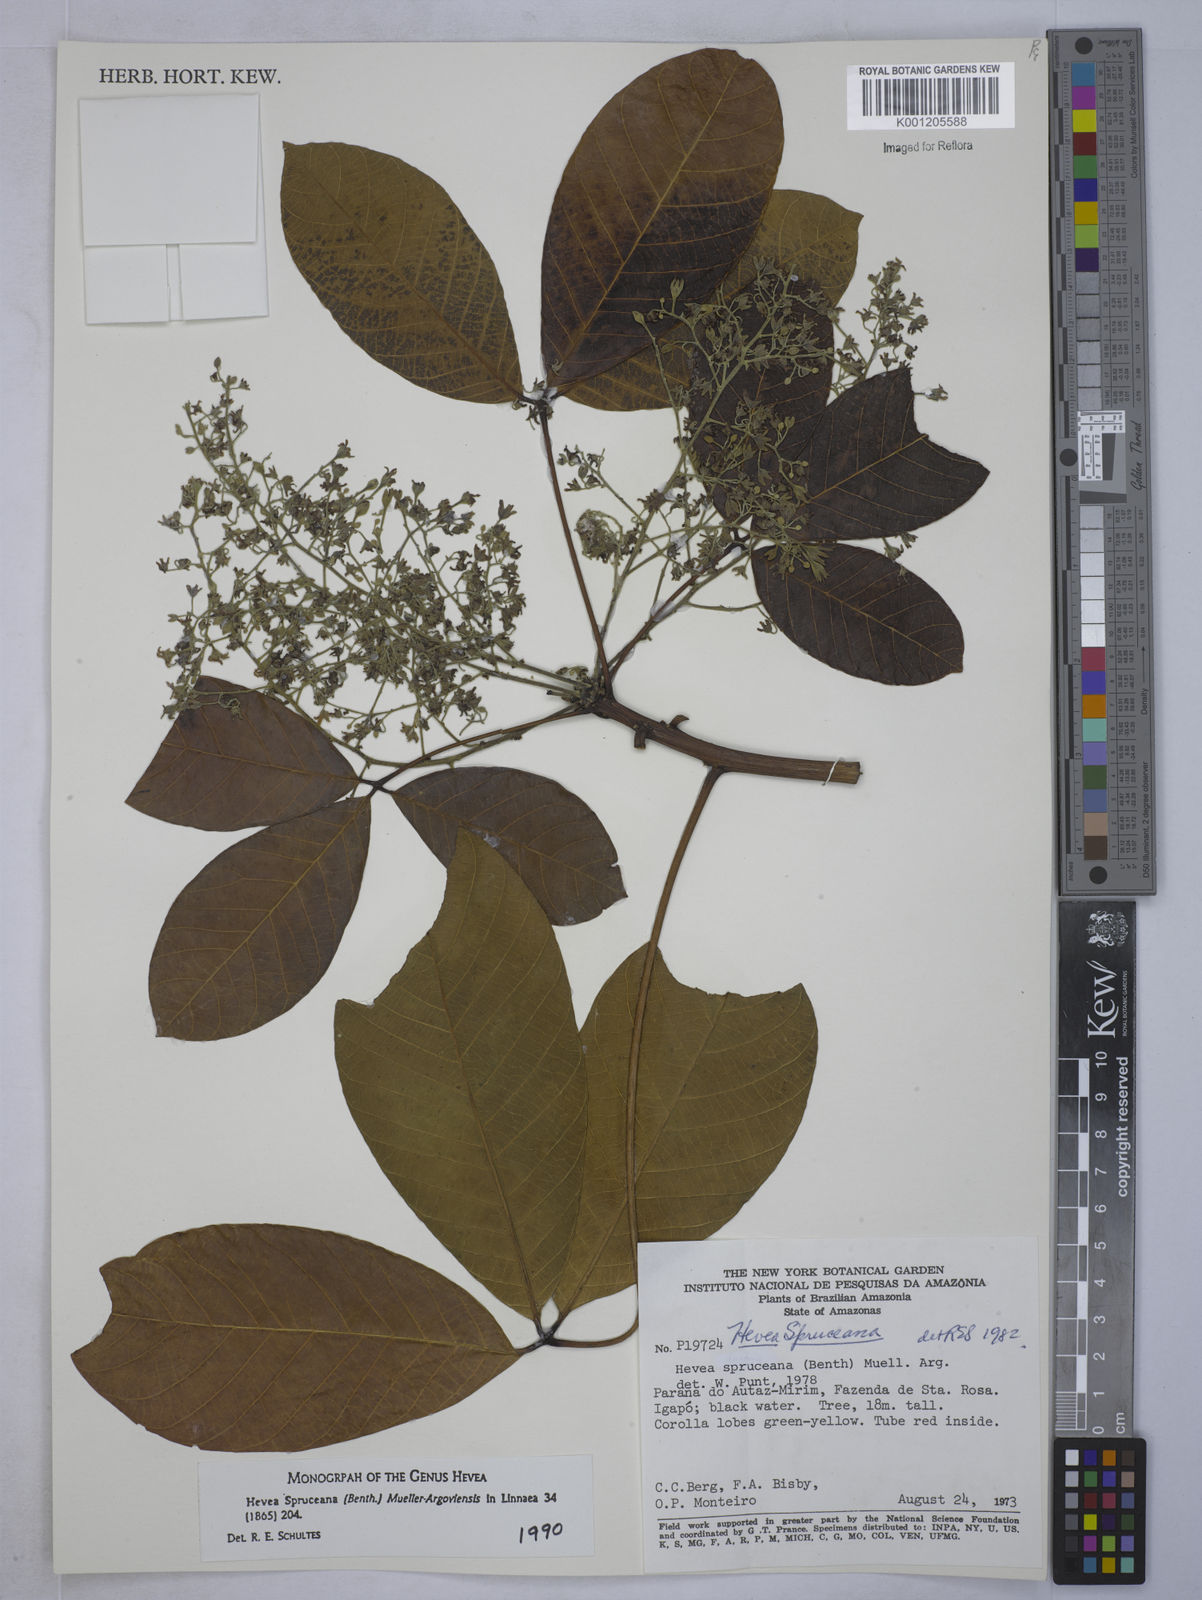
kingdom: Plantae
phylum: Tracheophyta
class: Magnoliopsida
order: Malpighiales
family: Euphorbiaceae
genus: Hevea
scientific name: Hevea
